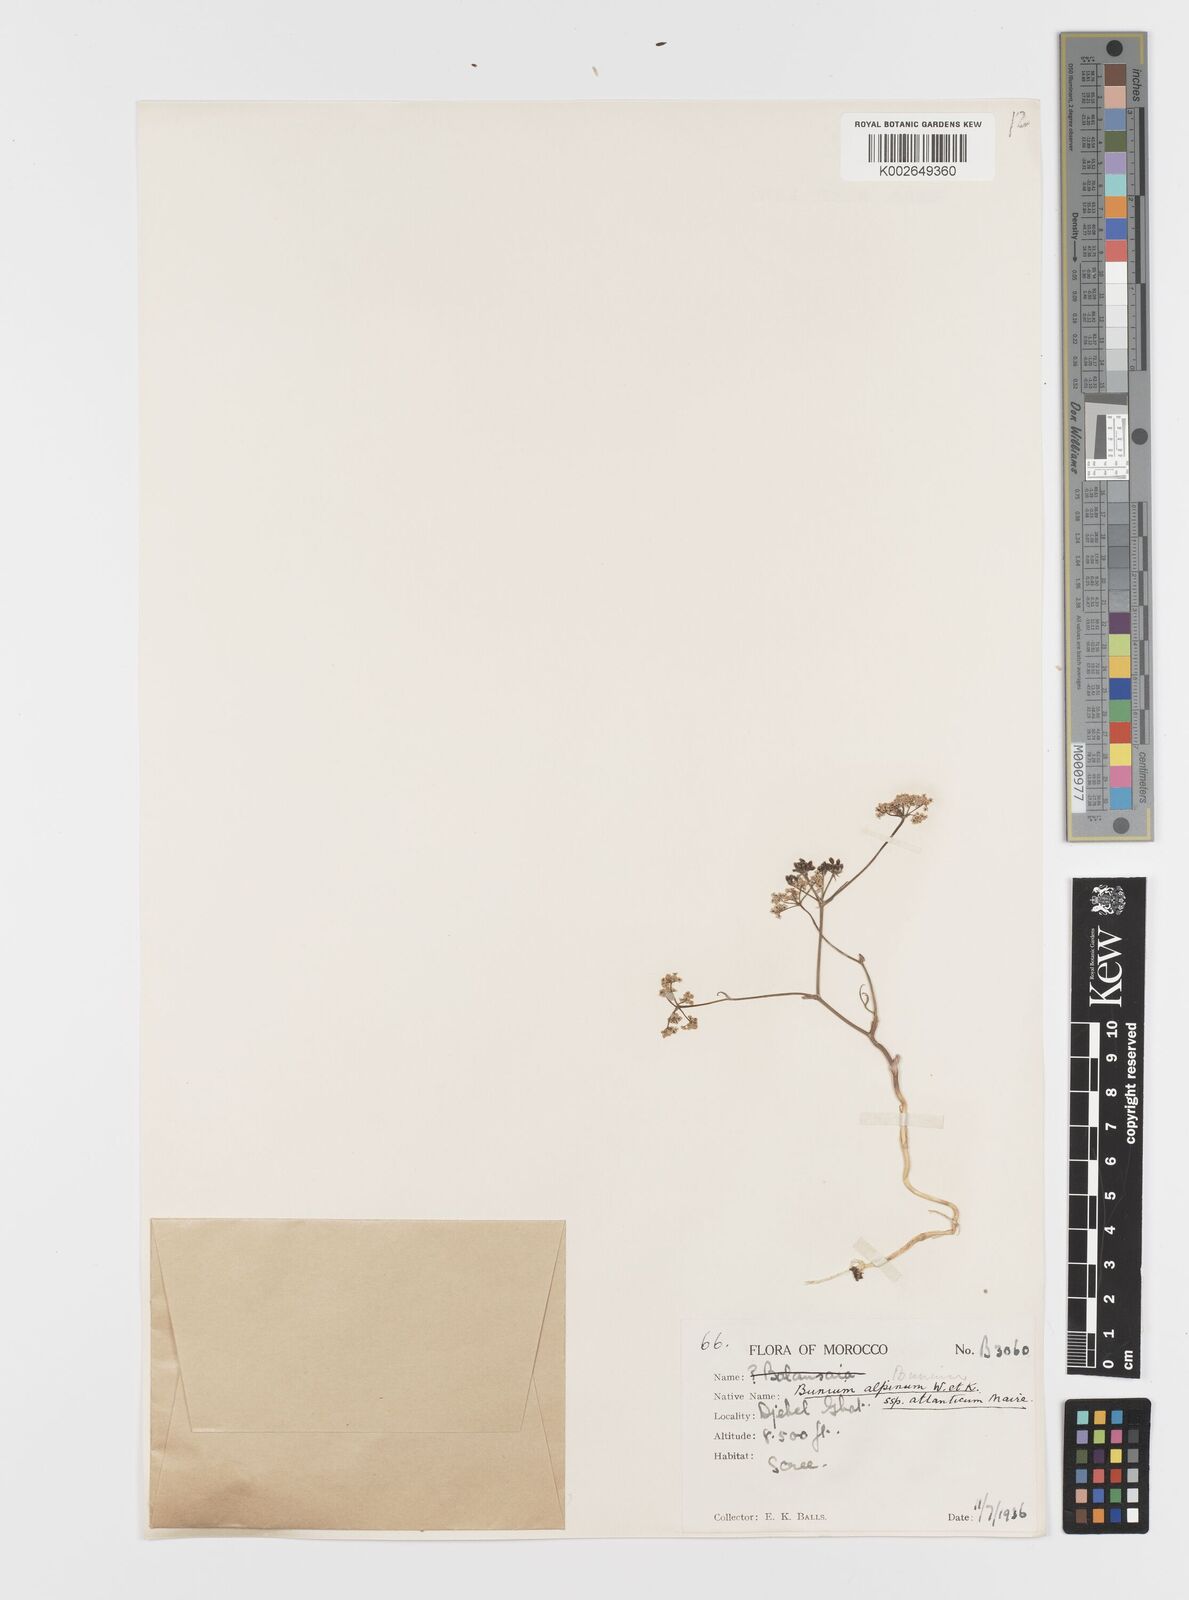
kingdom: Plantae
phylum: Tracheophyta
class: Magnoliopsida
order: Apiales
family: Apiaceae
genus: Bunium
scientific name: Bunium macuca
